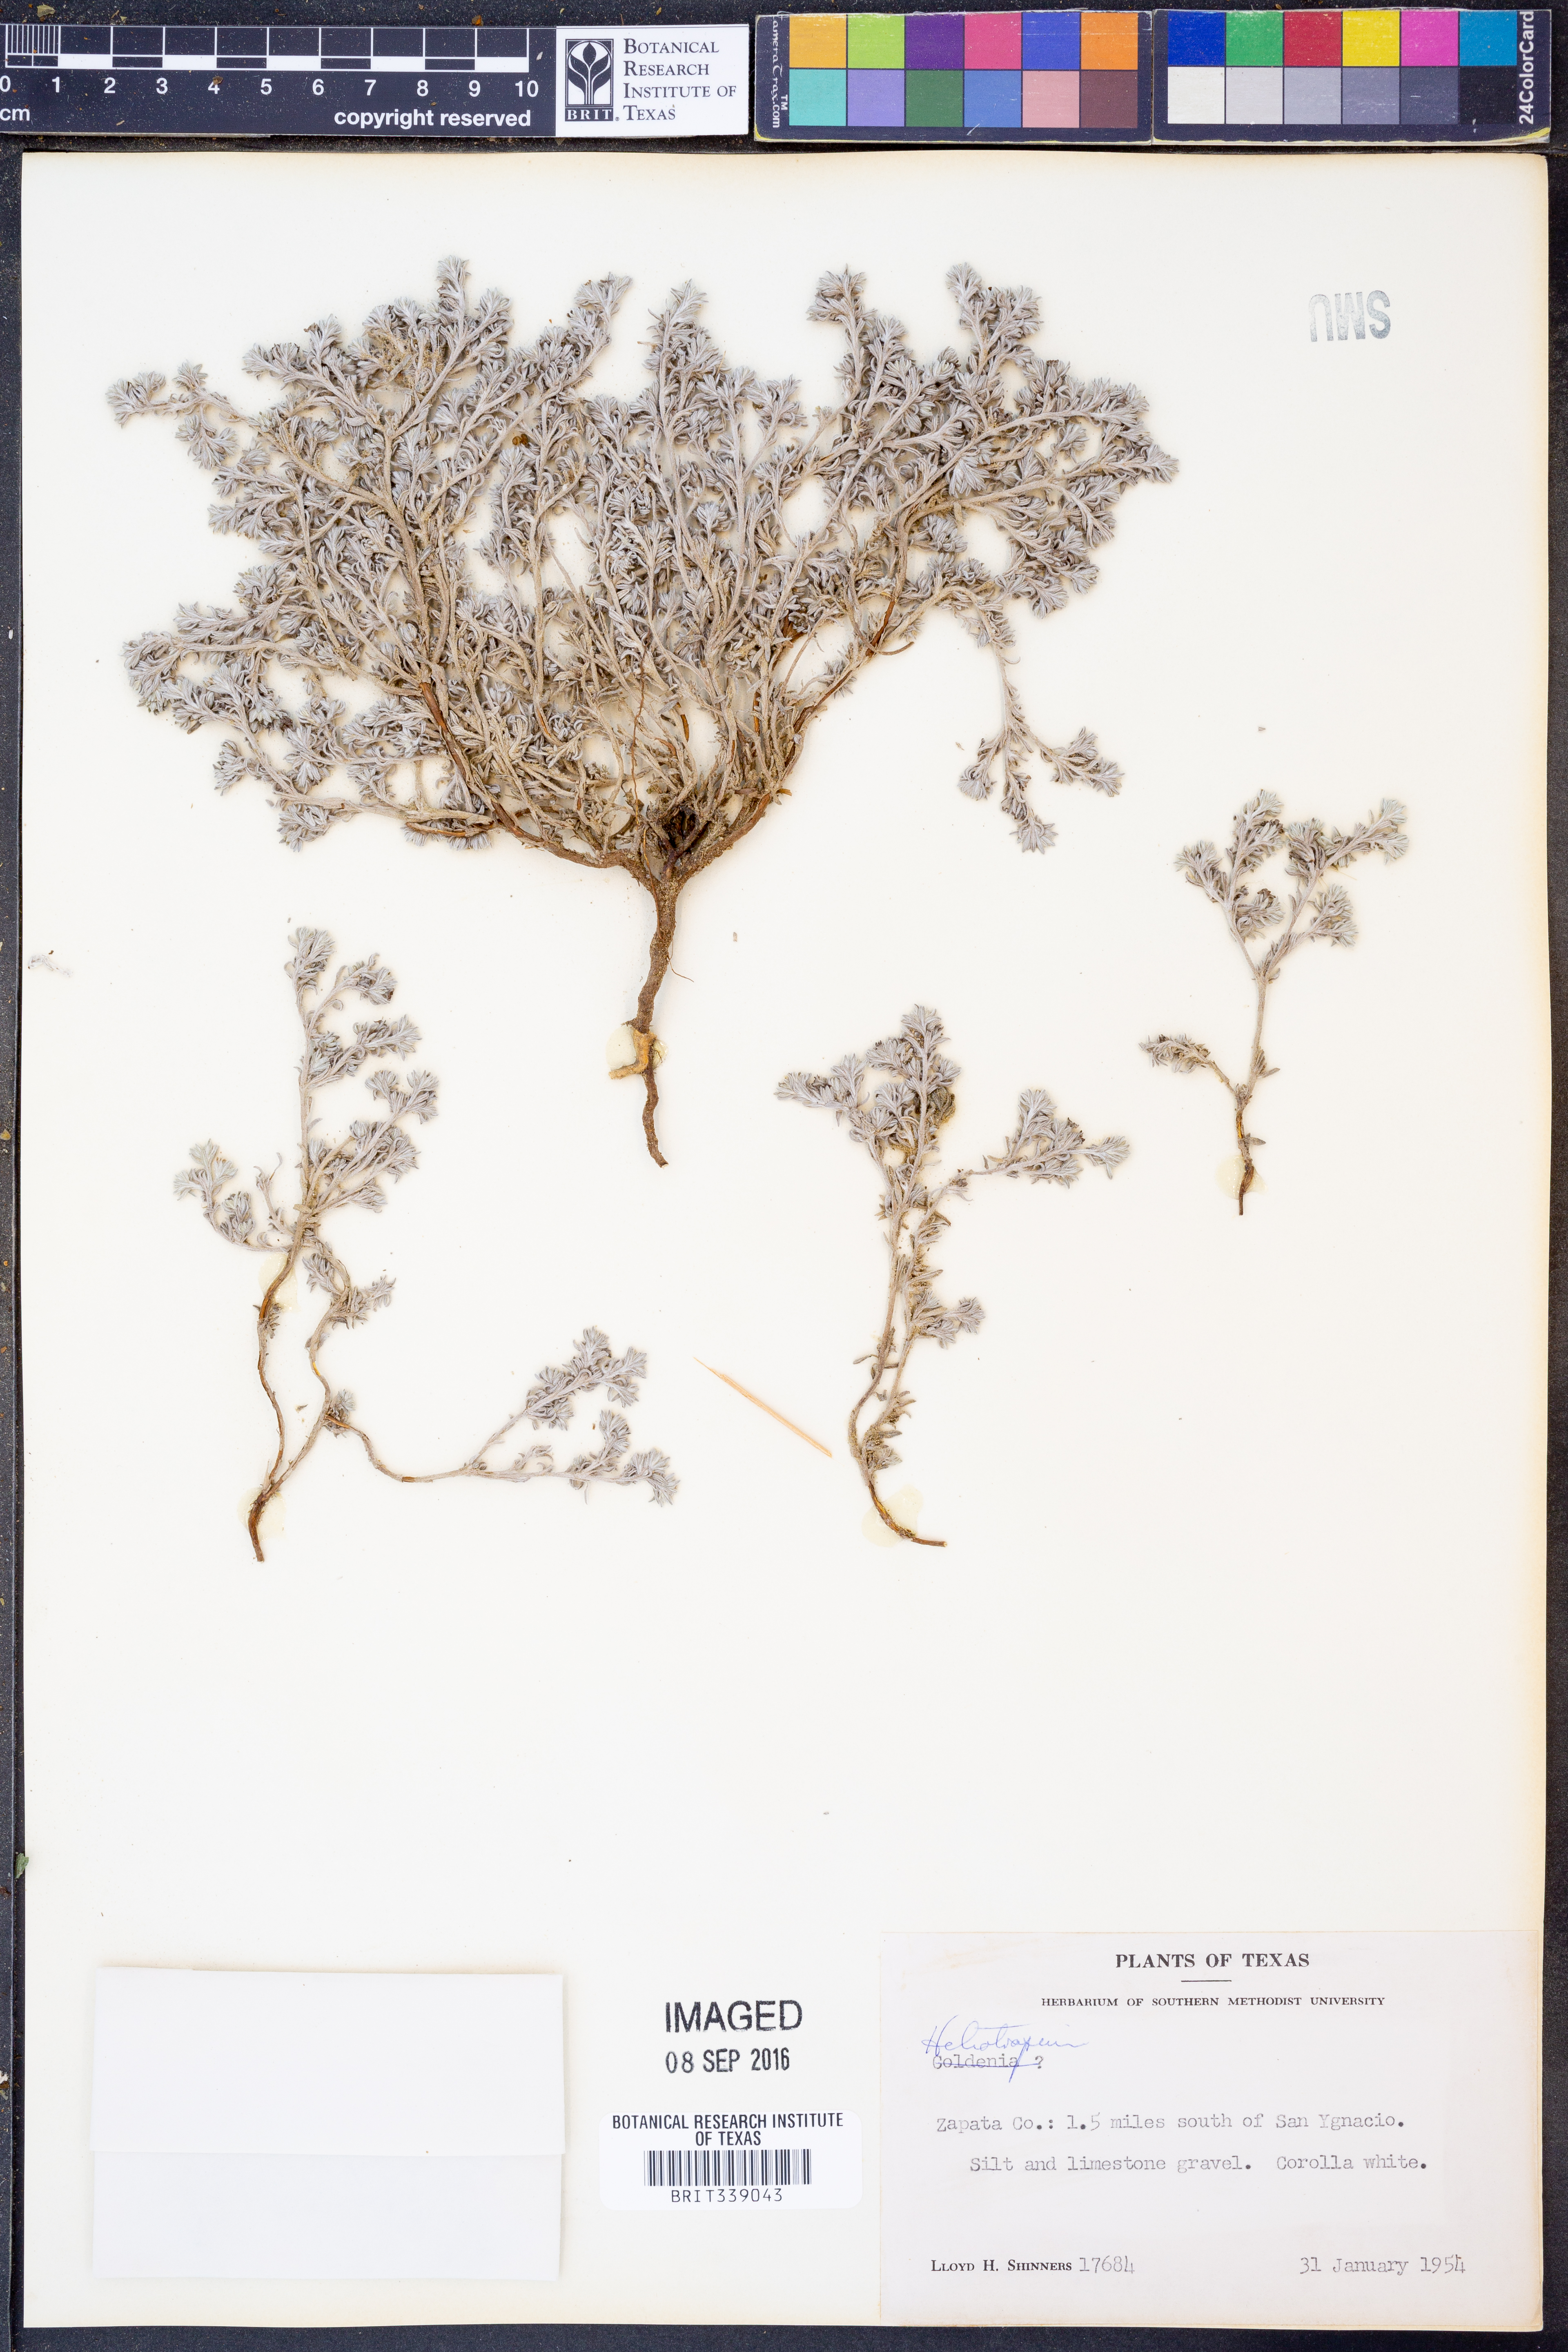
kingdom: Plantae
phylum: Tracheophyta
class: Magnoliopsida
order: Boraginales
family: Heliotropiaceae
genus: Heliotropium
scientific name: Heliotropium
